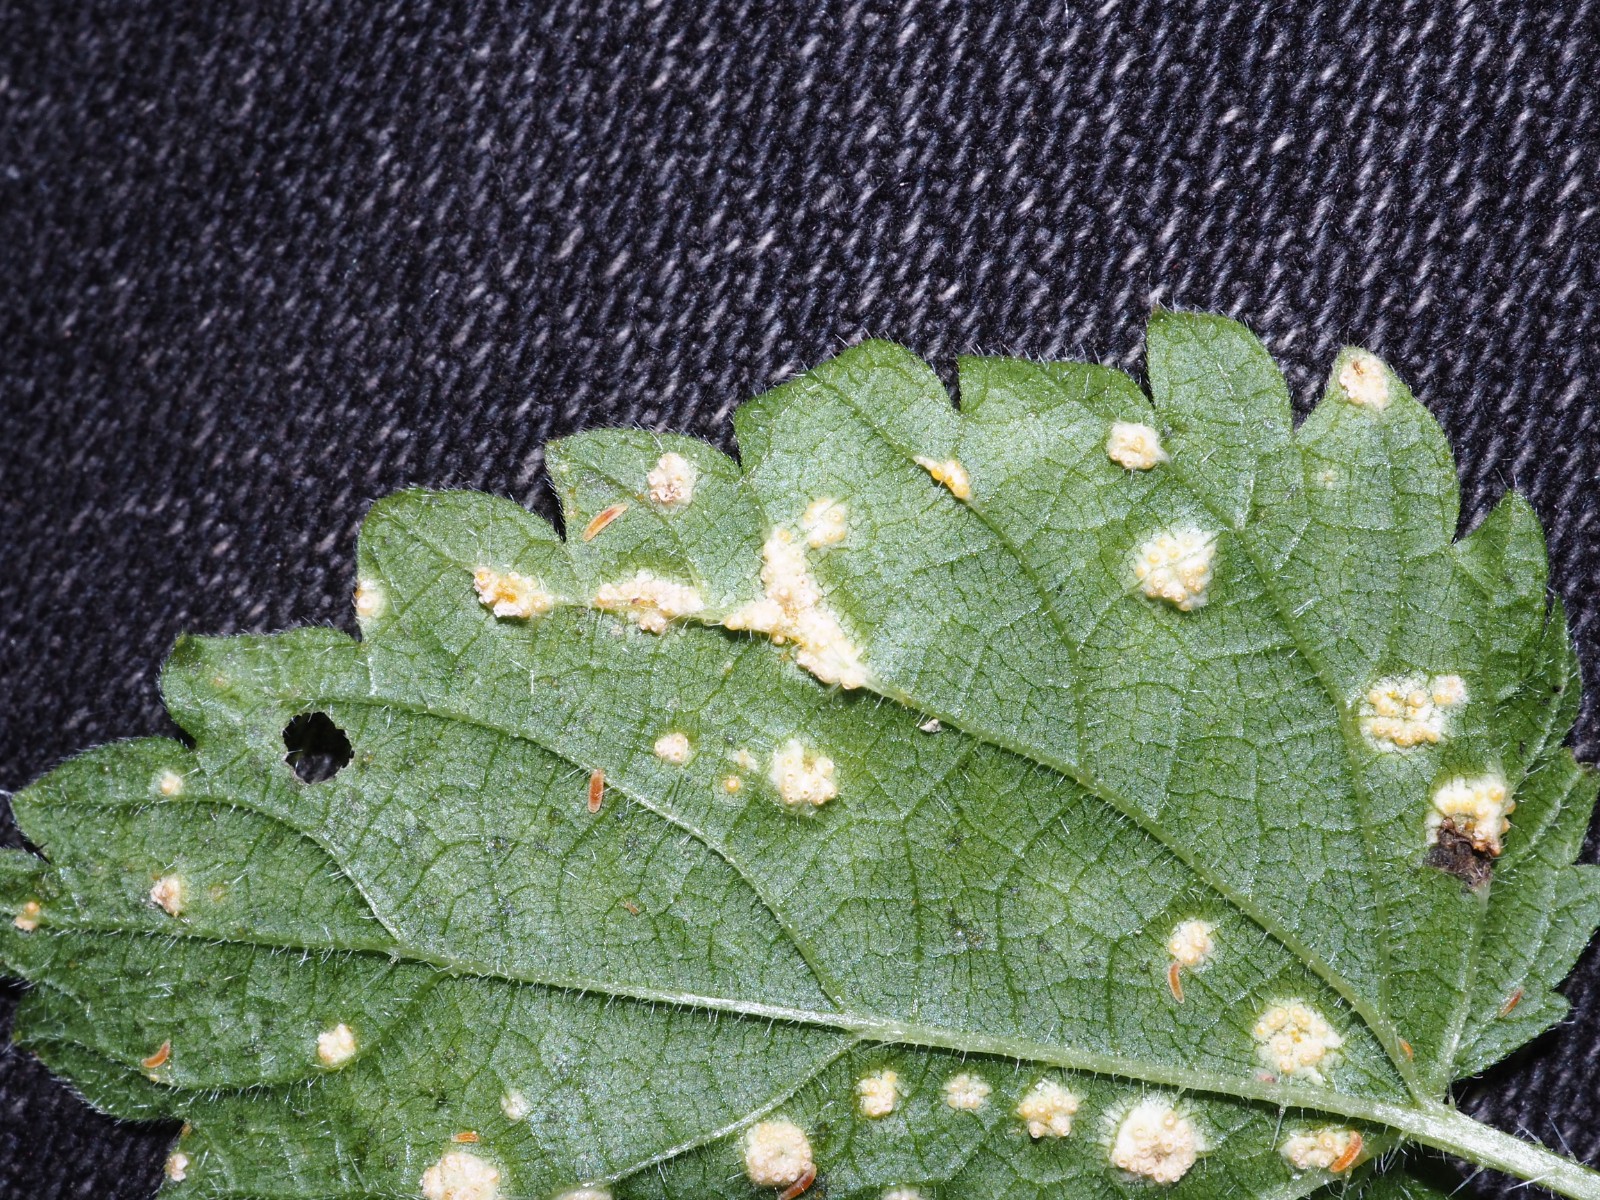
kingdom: Fungi
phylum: Basidiomycota
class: Pucciniomycetes
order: Pucciniales
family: Pucciniaceae
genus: Puccinia
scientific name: Puccinia urticata
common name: nældegalle-tvecellerust
